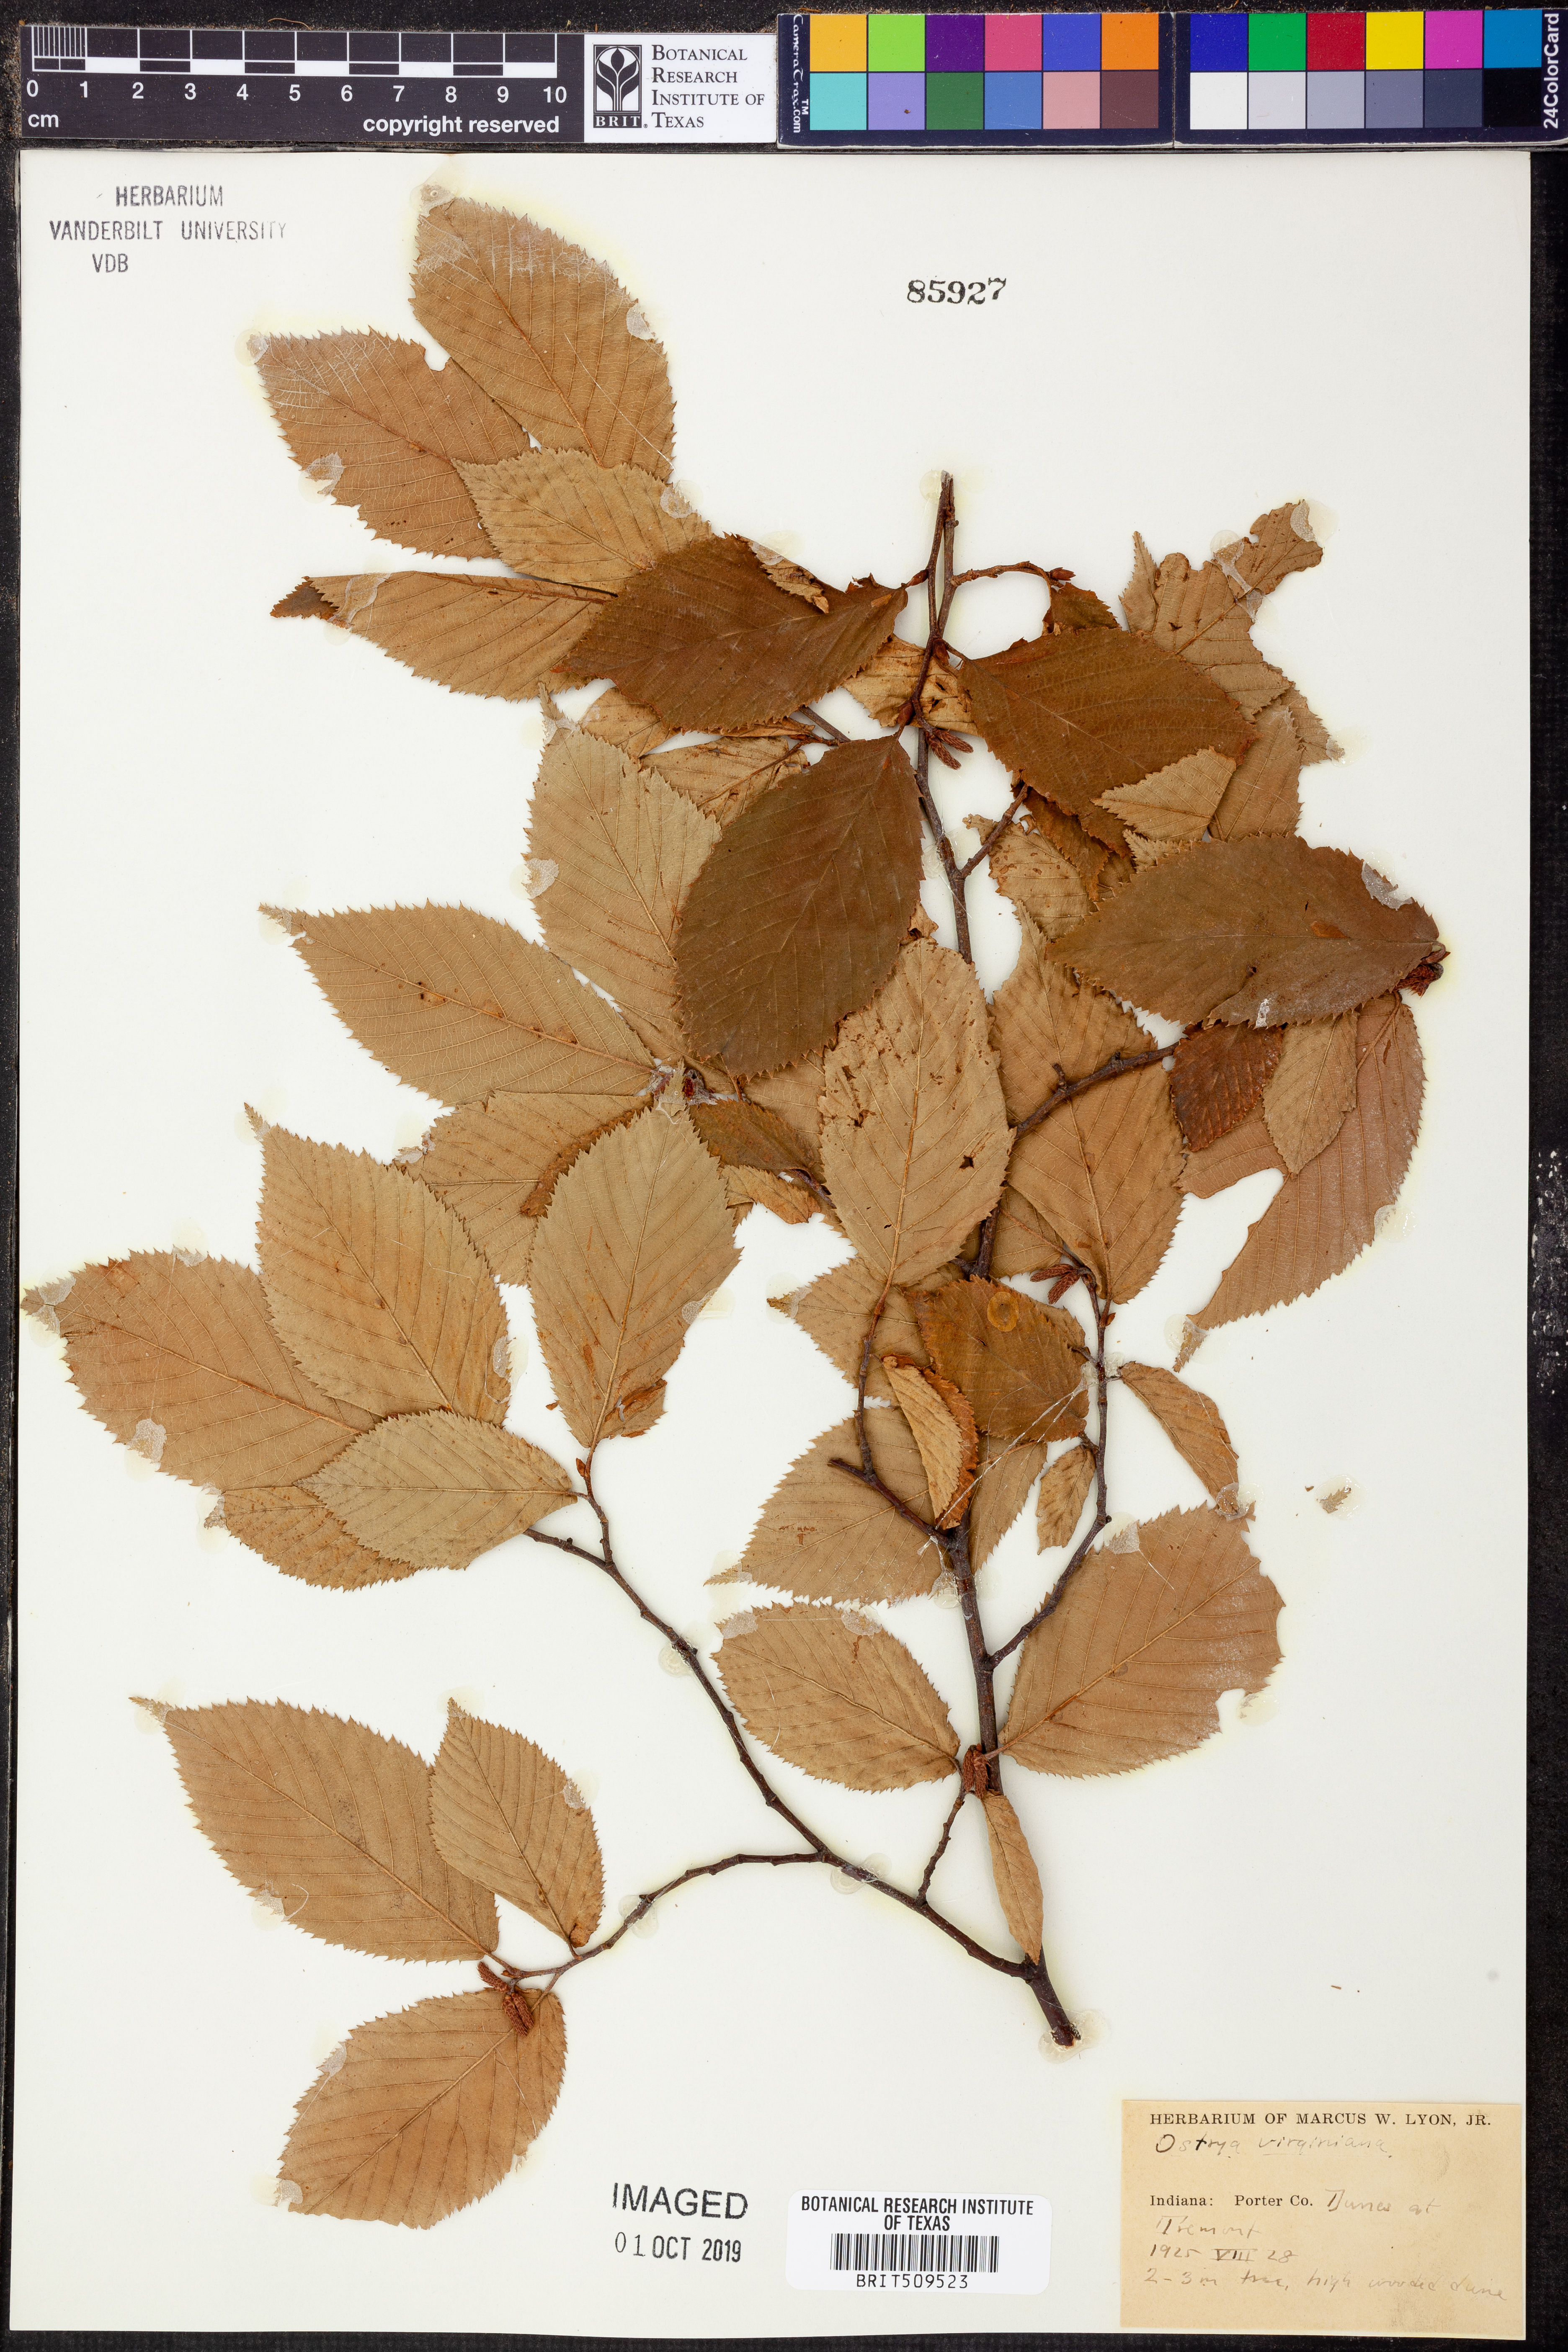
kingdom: Plantae
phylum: Tracheophyta
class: Magnoliopsida
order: Fagales
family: Betulaceae
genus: Ostrya
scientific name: Ostrya virginiana
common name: Ironwood
